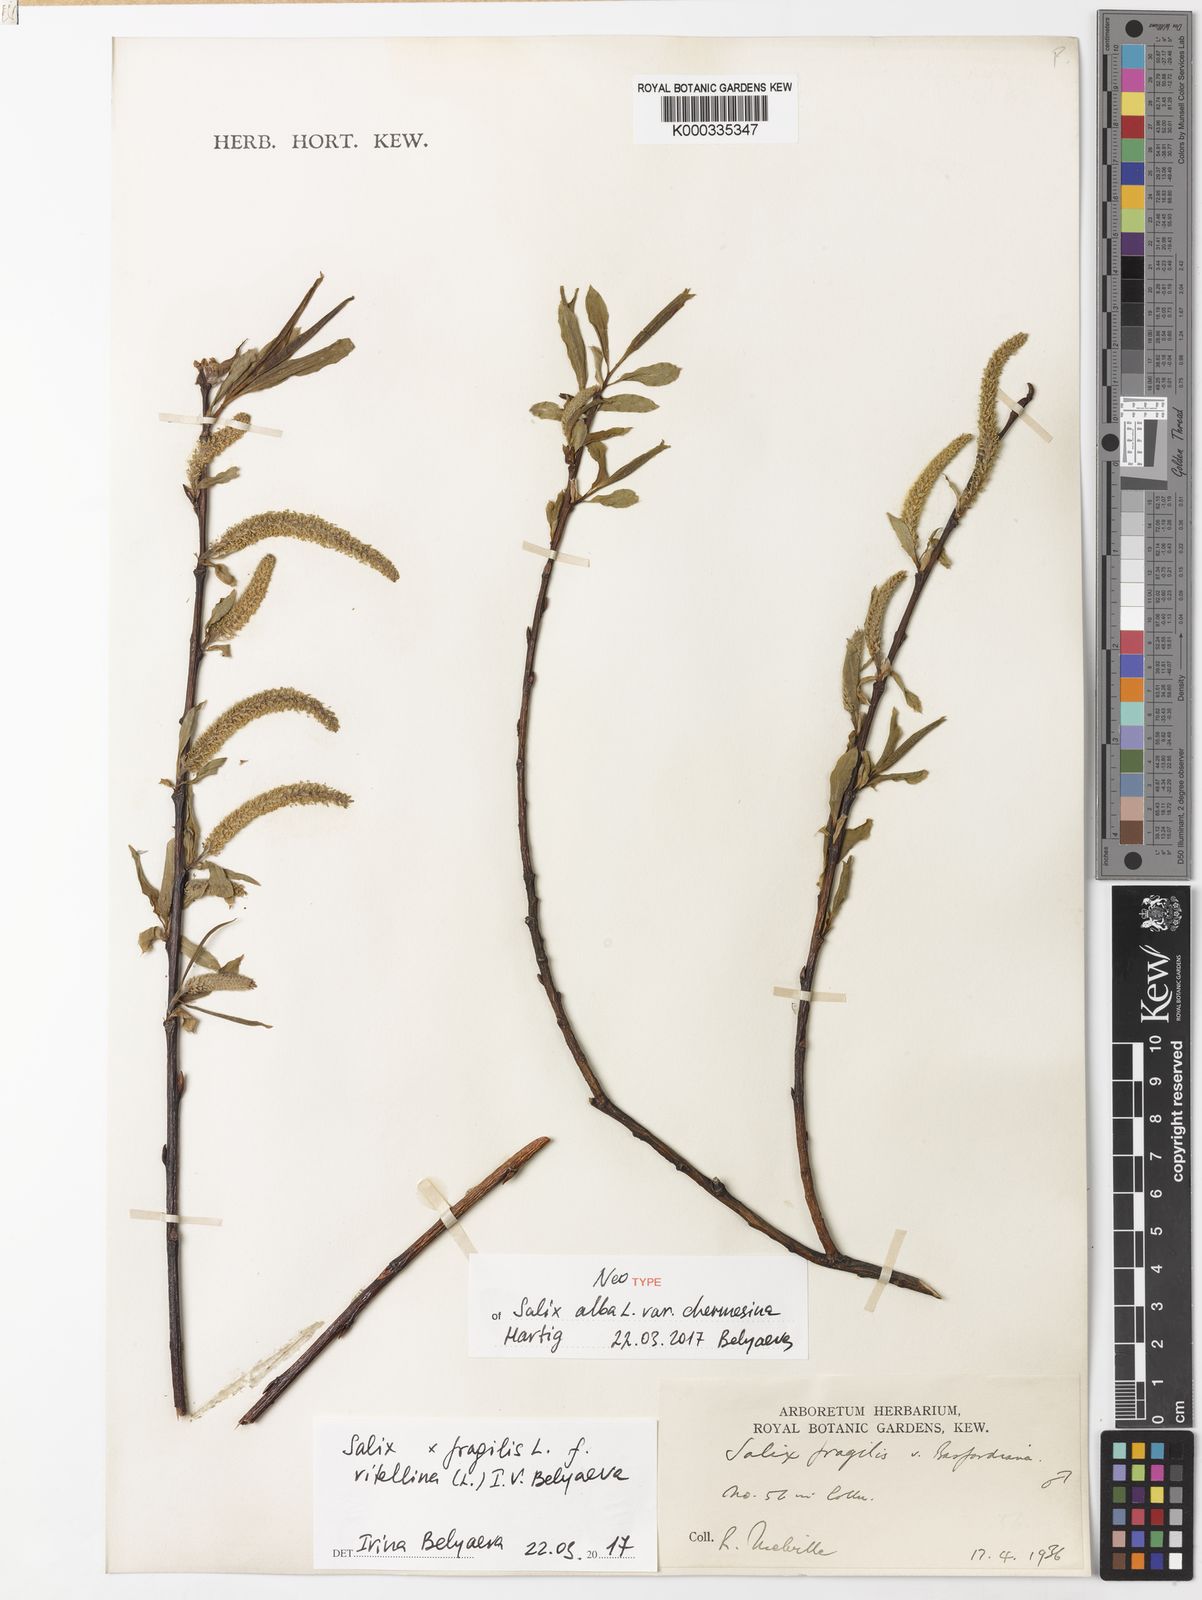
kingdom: Plantae
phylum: Tracheophyta
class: Magnoliopsida
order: Malpighiales
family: Salicaceae
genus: Salix
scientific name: Salix fragilis
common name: Crack willow
